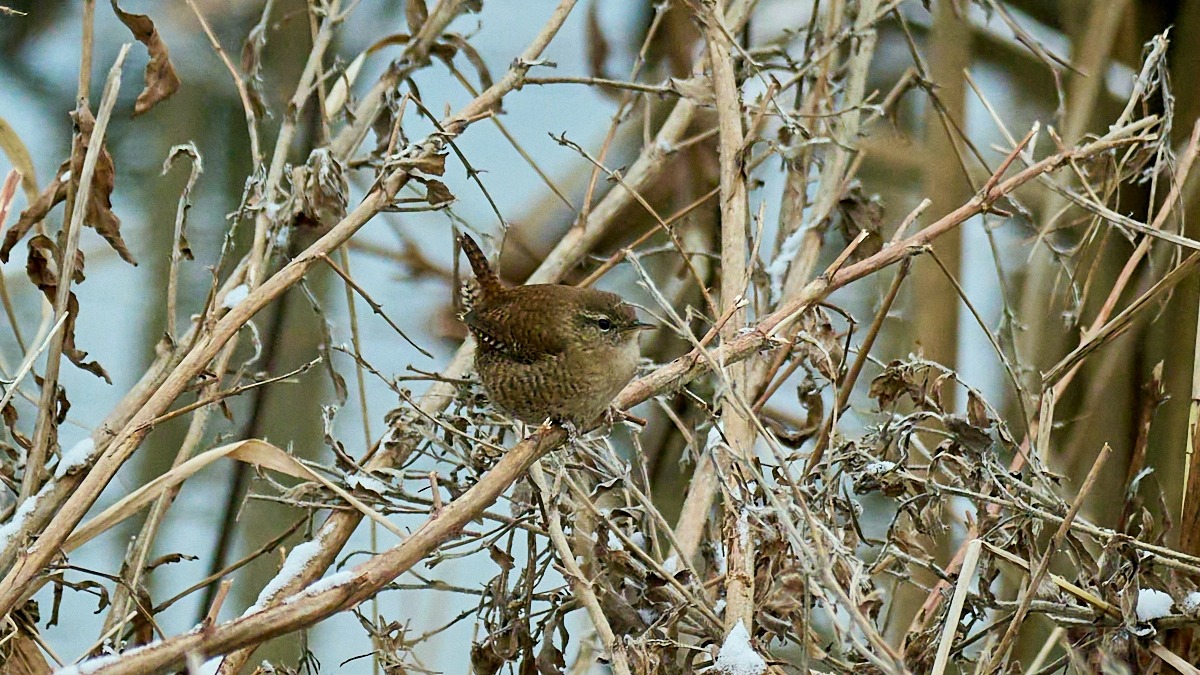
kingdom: Animalia
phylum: Chordata
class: Aves
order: Passeriformes
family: Troglodytidae
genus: Troglodytes
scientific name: Troglodytes troglodytes
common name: Gærdesmutte
